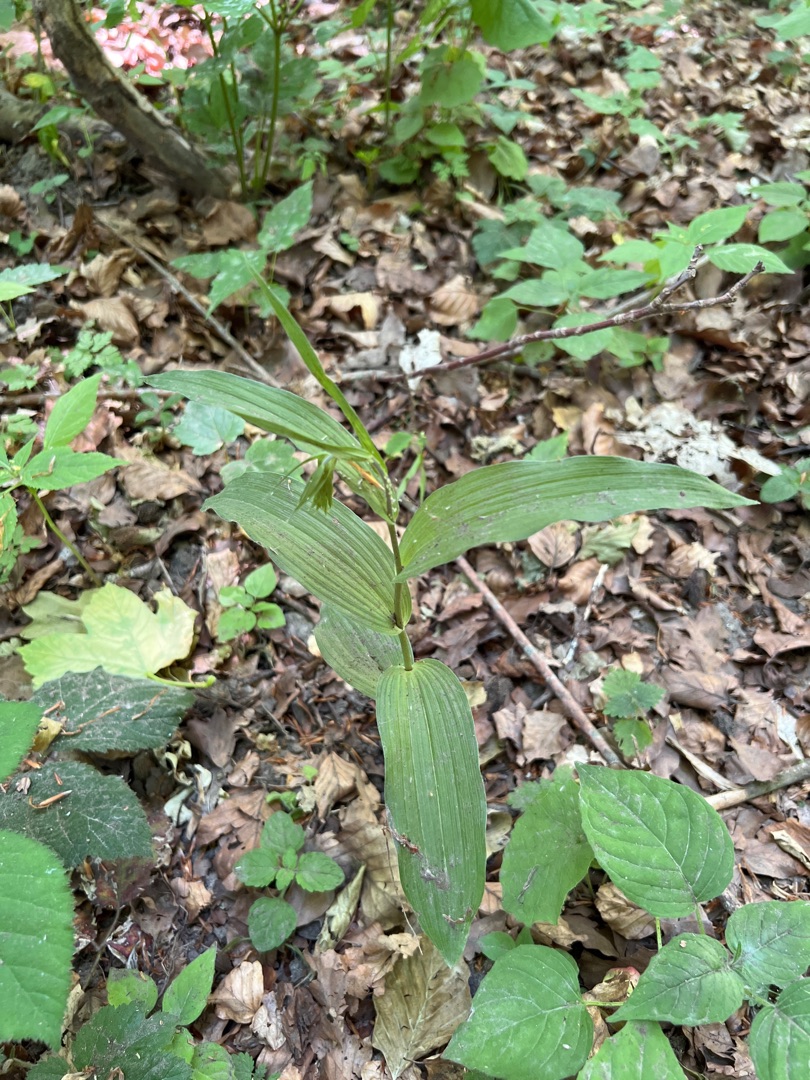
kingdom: Plantae
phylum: Tracheophyta
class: Liliopsida
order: Asparagales
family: Orchidaceae
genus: Epipactis
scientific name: Epipactis helleborine
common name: Skov-hullæbe
